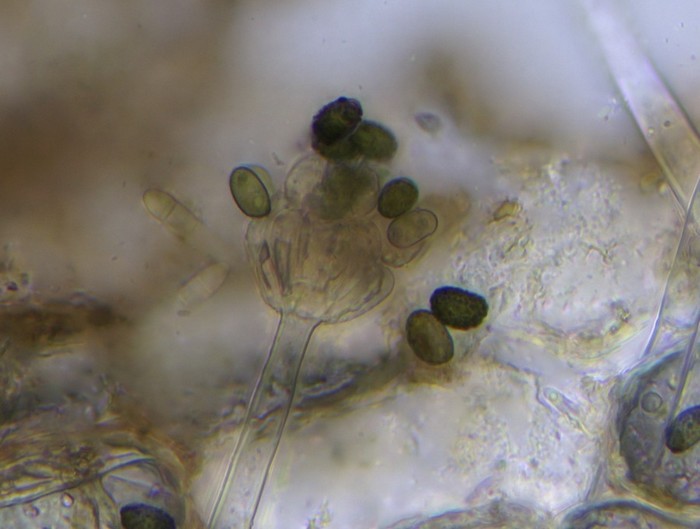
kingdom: Fungi
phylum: Ascomycota
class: Sordariomycetes
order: Hypocreales
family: Stachybotryaceae
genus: Memnoniella
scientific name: Memnoniella dichroa
